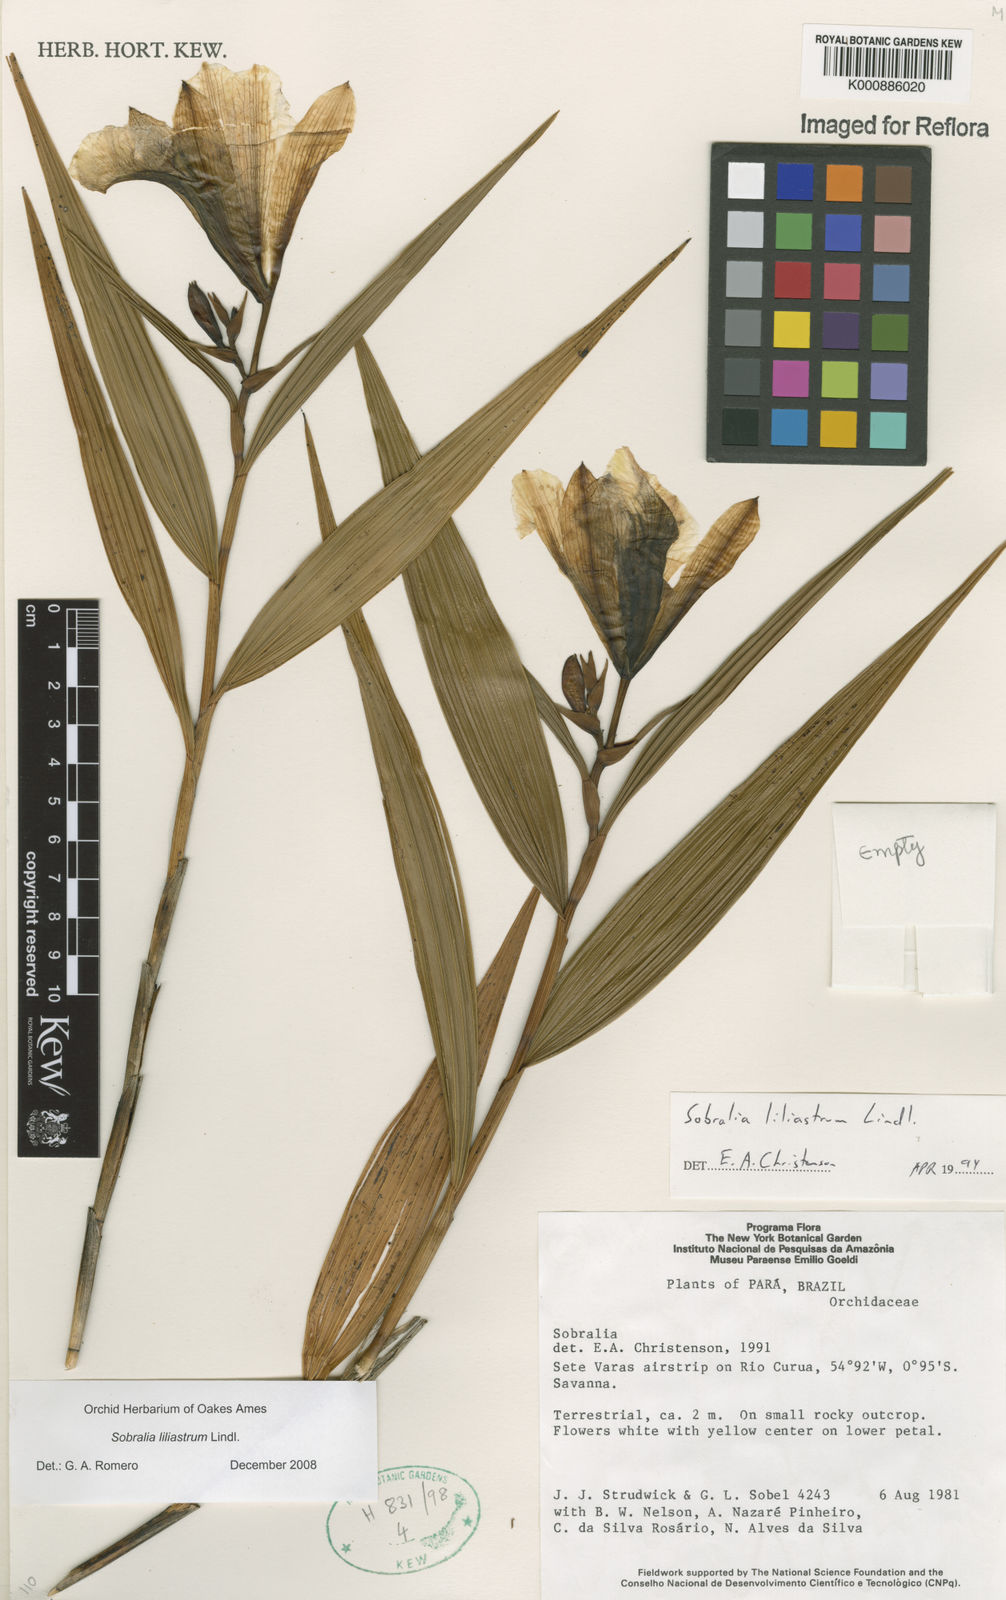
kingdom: Plantae
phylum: Tracheophyta
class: Liliopsida
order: Asparagales
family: Orchidaceae
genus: Sobralia
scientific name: Sobralia liliastrum
